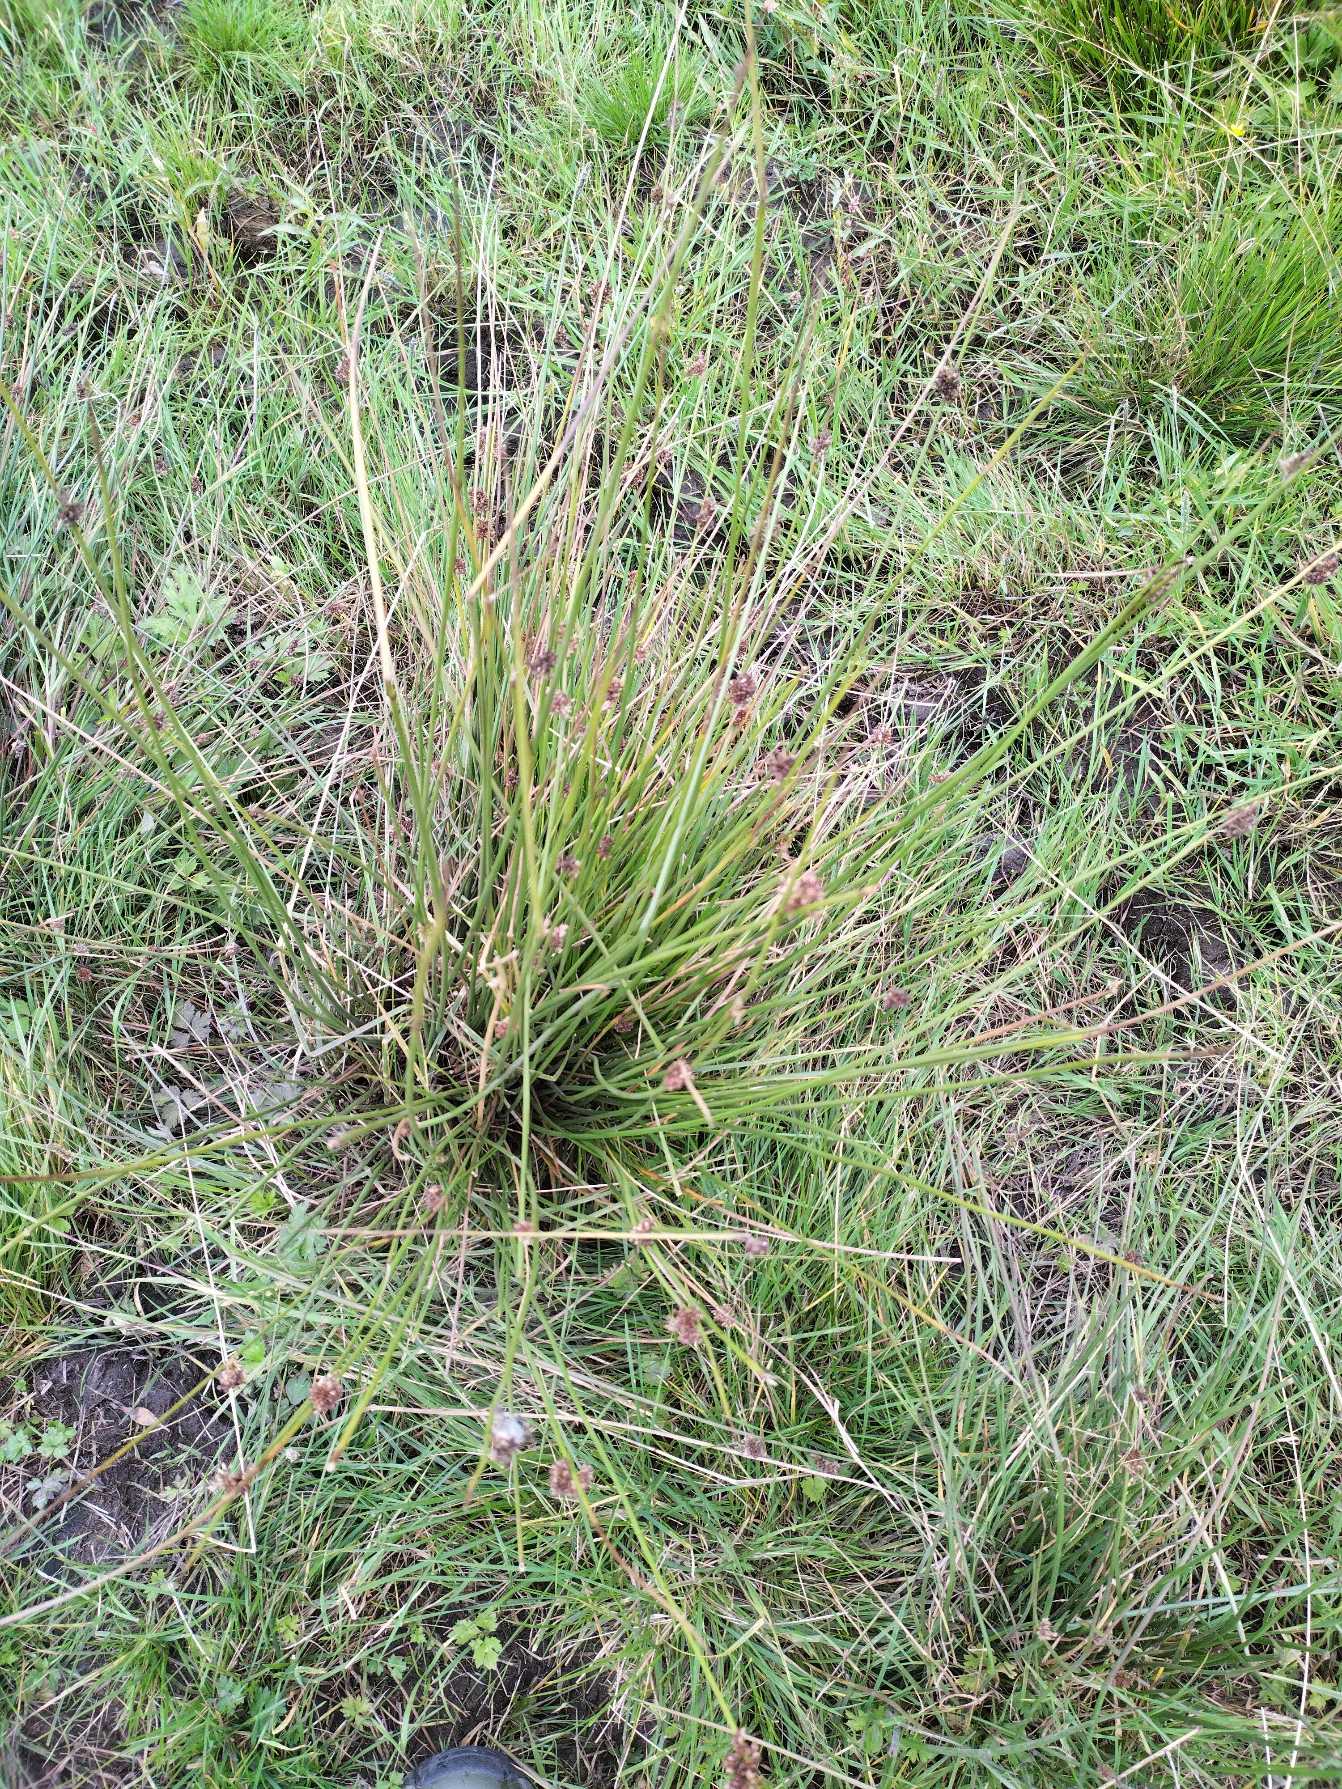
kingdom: Plantae
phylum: Tracheophyta
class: Liliopsida
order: Poales
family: Juncaceae
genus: Juncus
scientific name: Juncus
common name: Sivslægten
